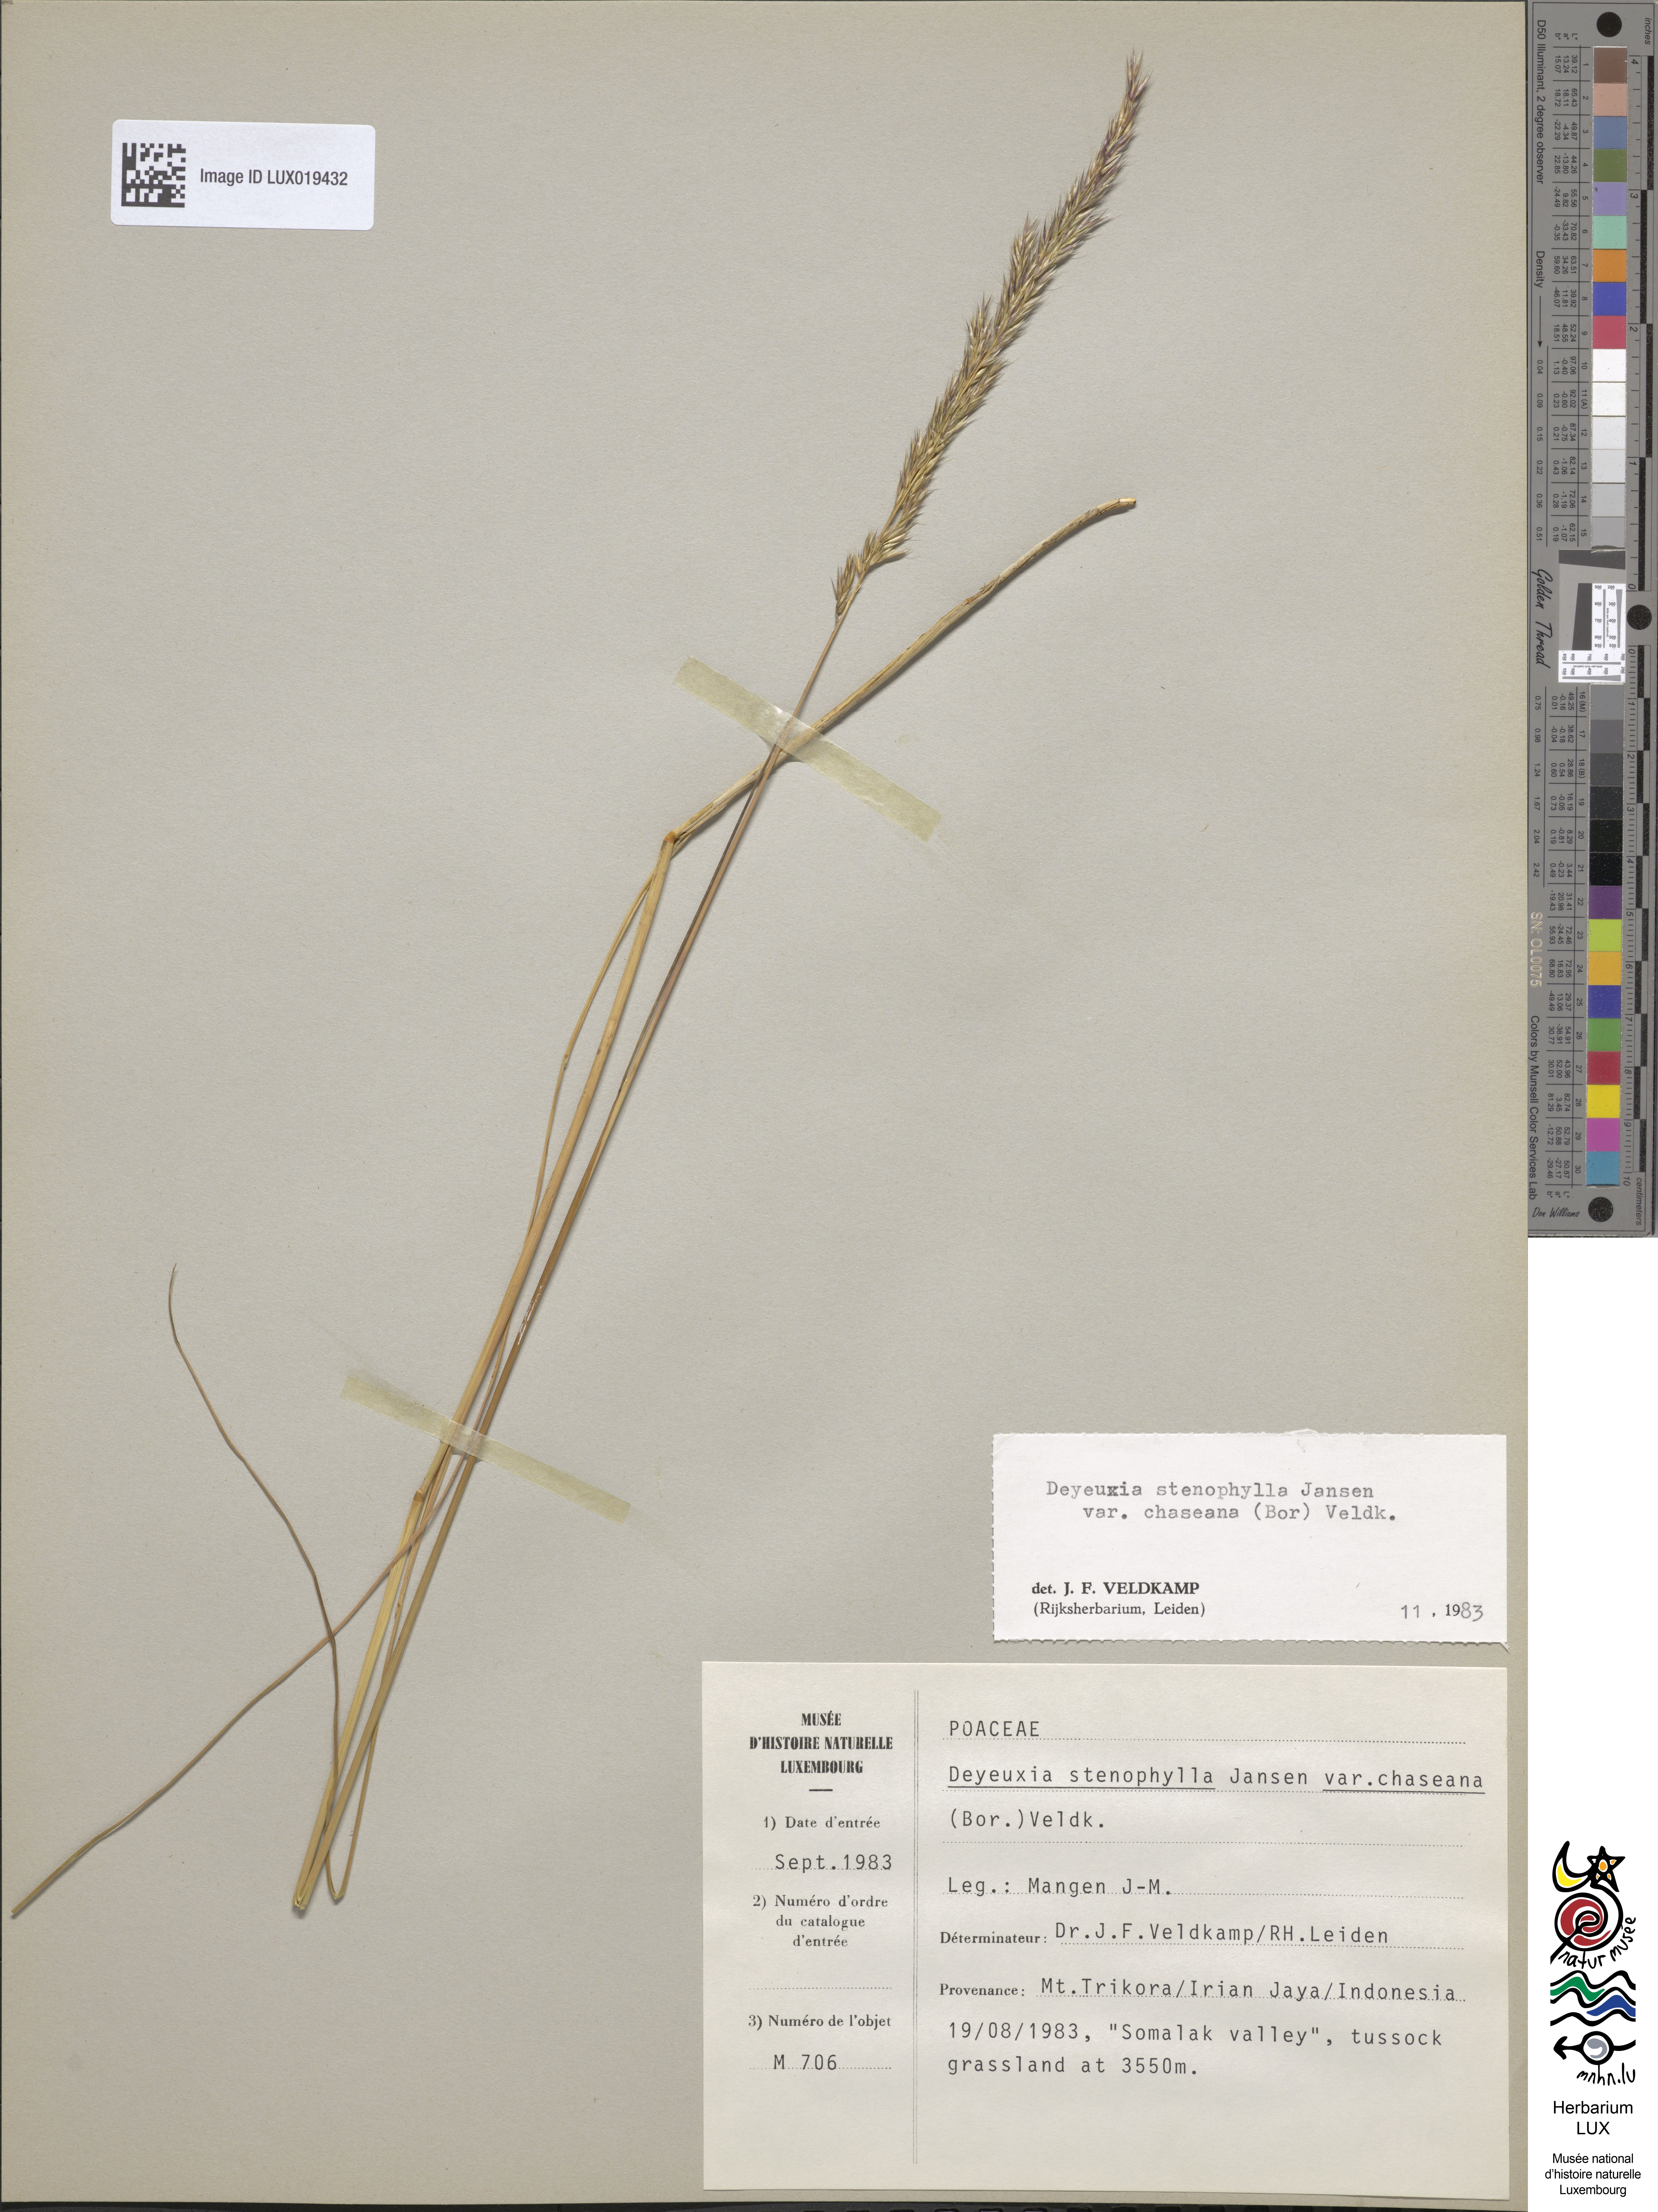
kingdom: Plantae
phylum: Tracheophyta
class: Liliopsida
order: Poales
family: Poaceae
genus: Calamagrostis
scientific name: Calamagrostis filifolia
